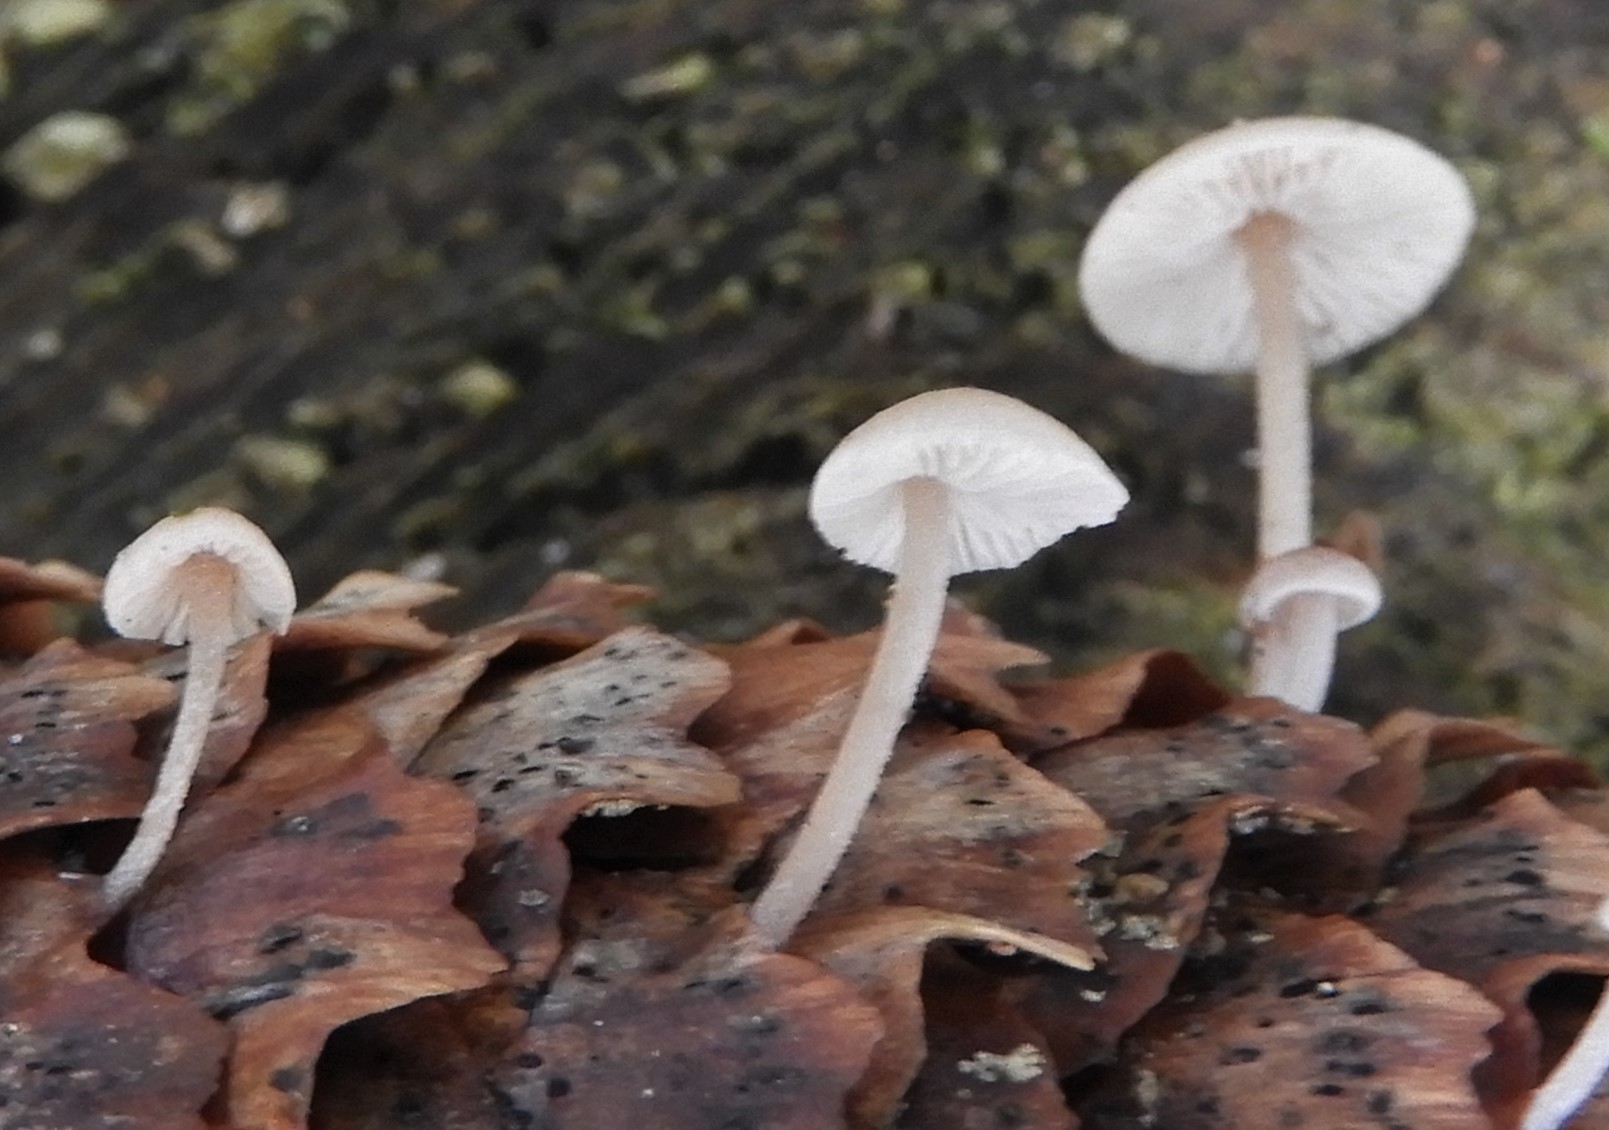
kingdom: Fungi
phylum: Basidiomycota
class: Agaricomycetes
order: Agaricales
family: Marasmiaceae
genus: Baeospora
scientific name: Baeospora myosura
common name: koglebruskhat
